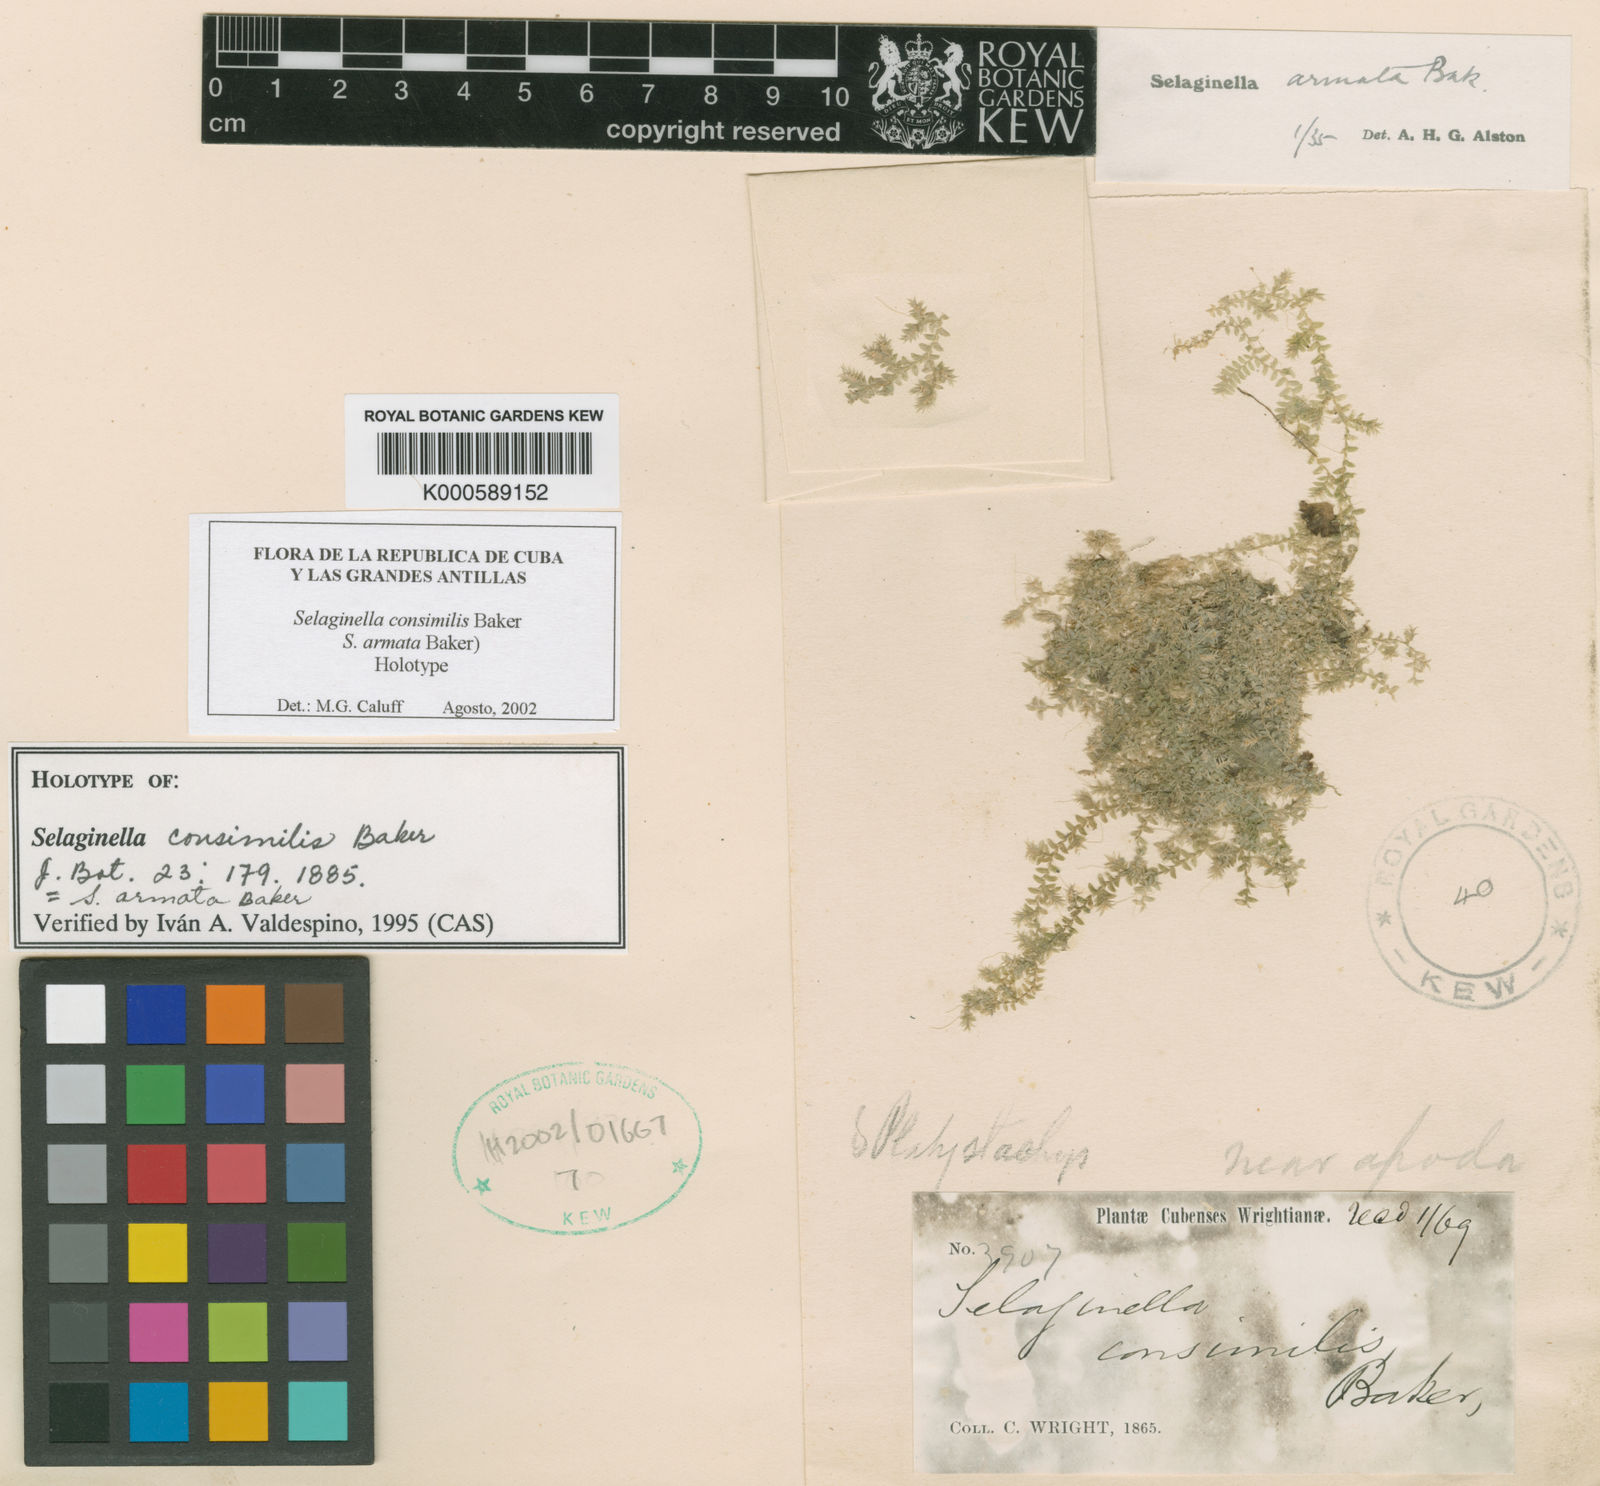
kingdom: Plantae
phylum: Tracheophyta
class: Lycopodiopsida
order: Selaginellales
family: Selaginellaceae
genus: Selaginella
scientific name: Selaginella armata
